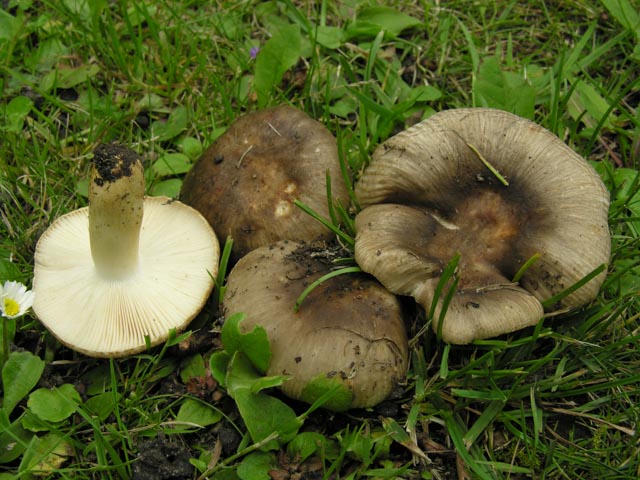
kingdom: Fungi
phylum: Basidiomycota
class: Agaricomycetes
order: Russulales
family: Russulaceae
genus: Russula
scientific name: Russula recondita
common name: mild kam-skørhat
